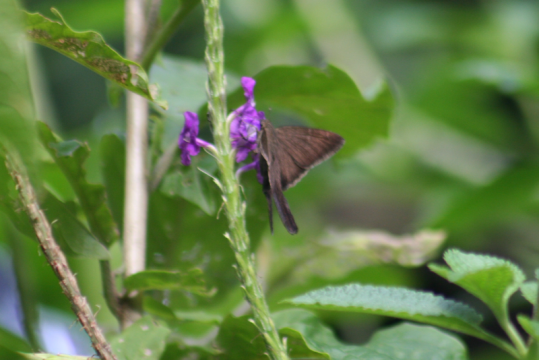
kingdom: Animalia
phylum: Arthropoda
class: Insecta
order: Lepidoptera
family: Hesperiidae
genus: Urbanus
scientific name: Urbanus simplicius
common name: Plain Longtail
